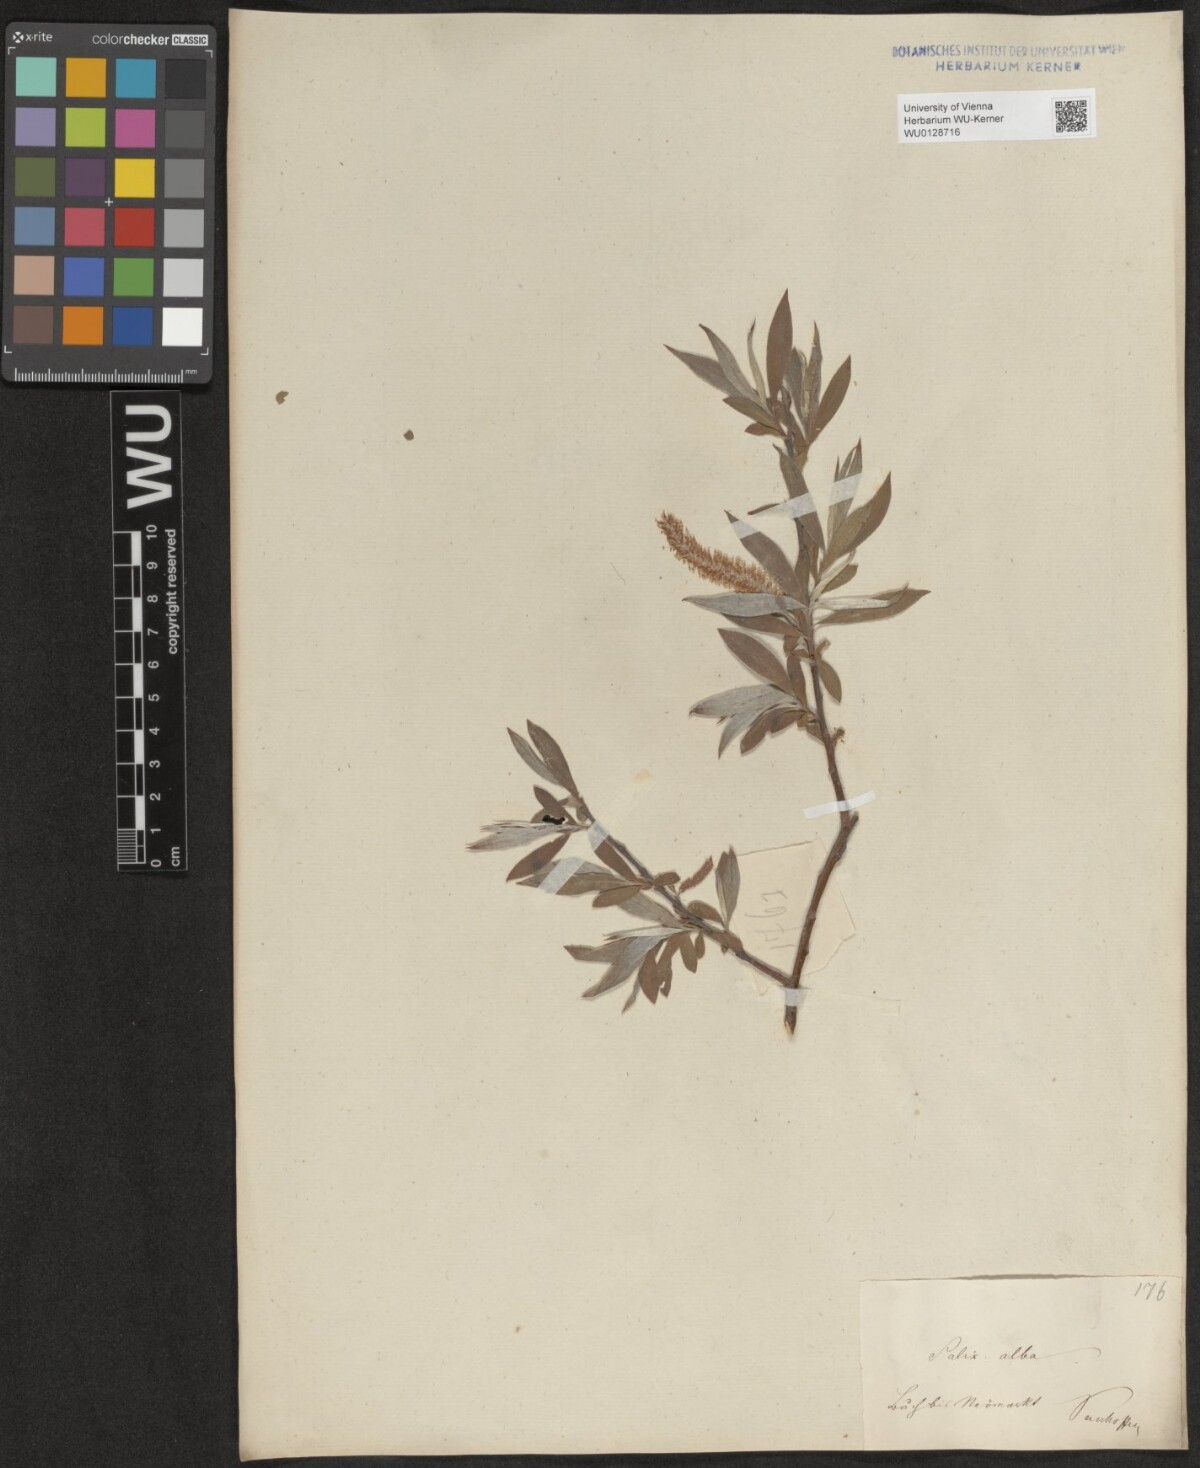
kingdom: Plantae
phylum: Tracheophyta
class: Magnoliopsida
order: Malpighiales
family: Salicaceae
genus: Salix
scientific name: Salix alba
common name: White willow
